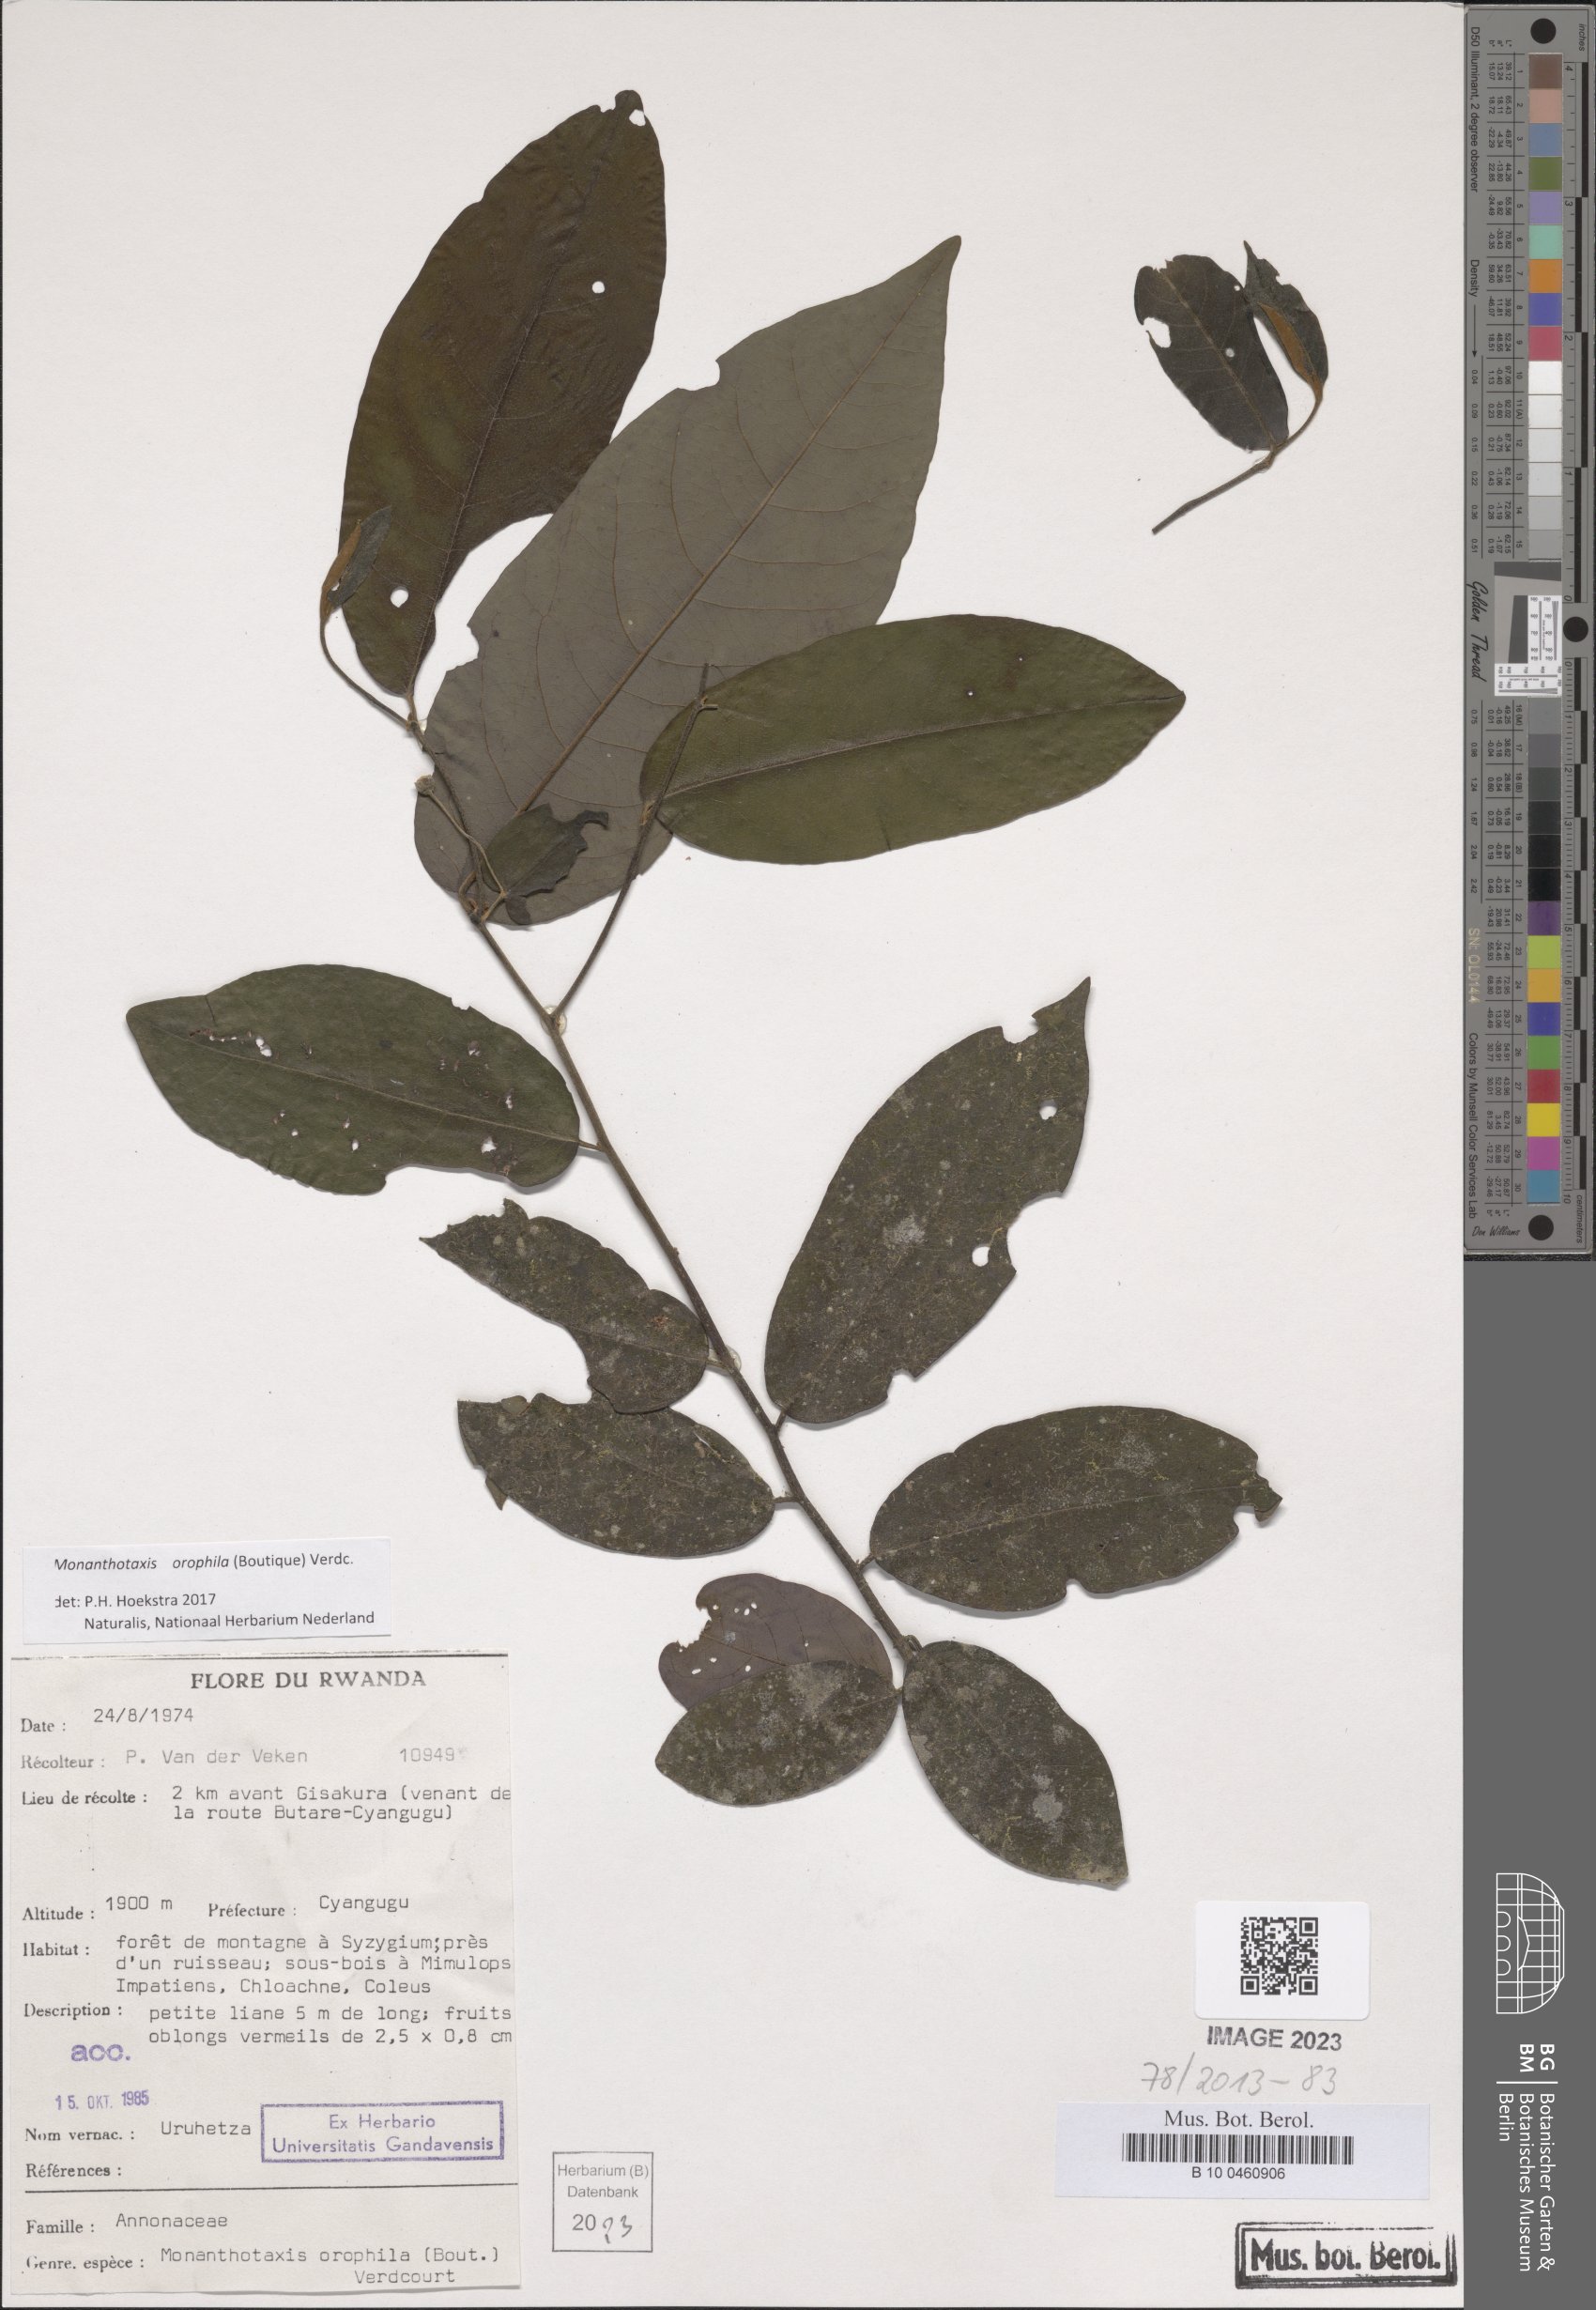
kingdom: Plantae
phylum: Tracheophyta
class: Magnoliopsida
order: Magnoliales
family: Annonaceae
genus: Monanthotaxis
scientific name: Monanthotaxis orophila
